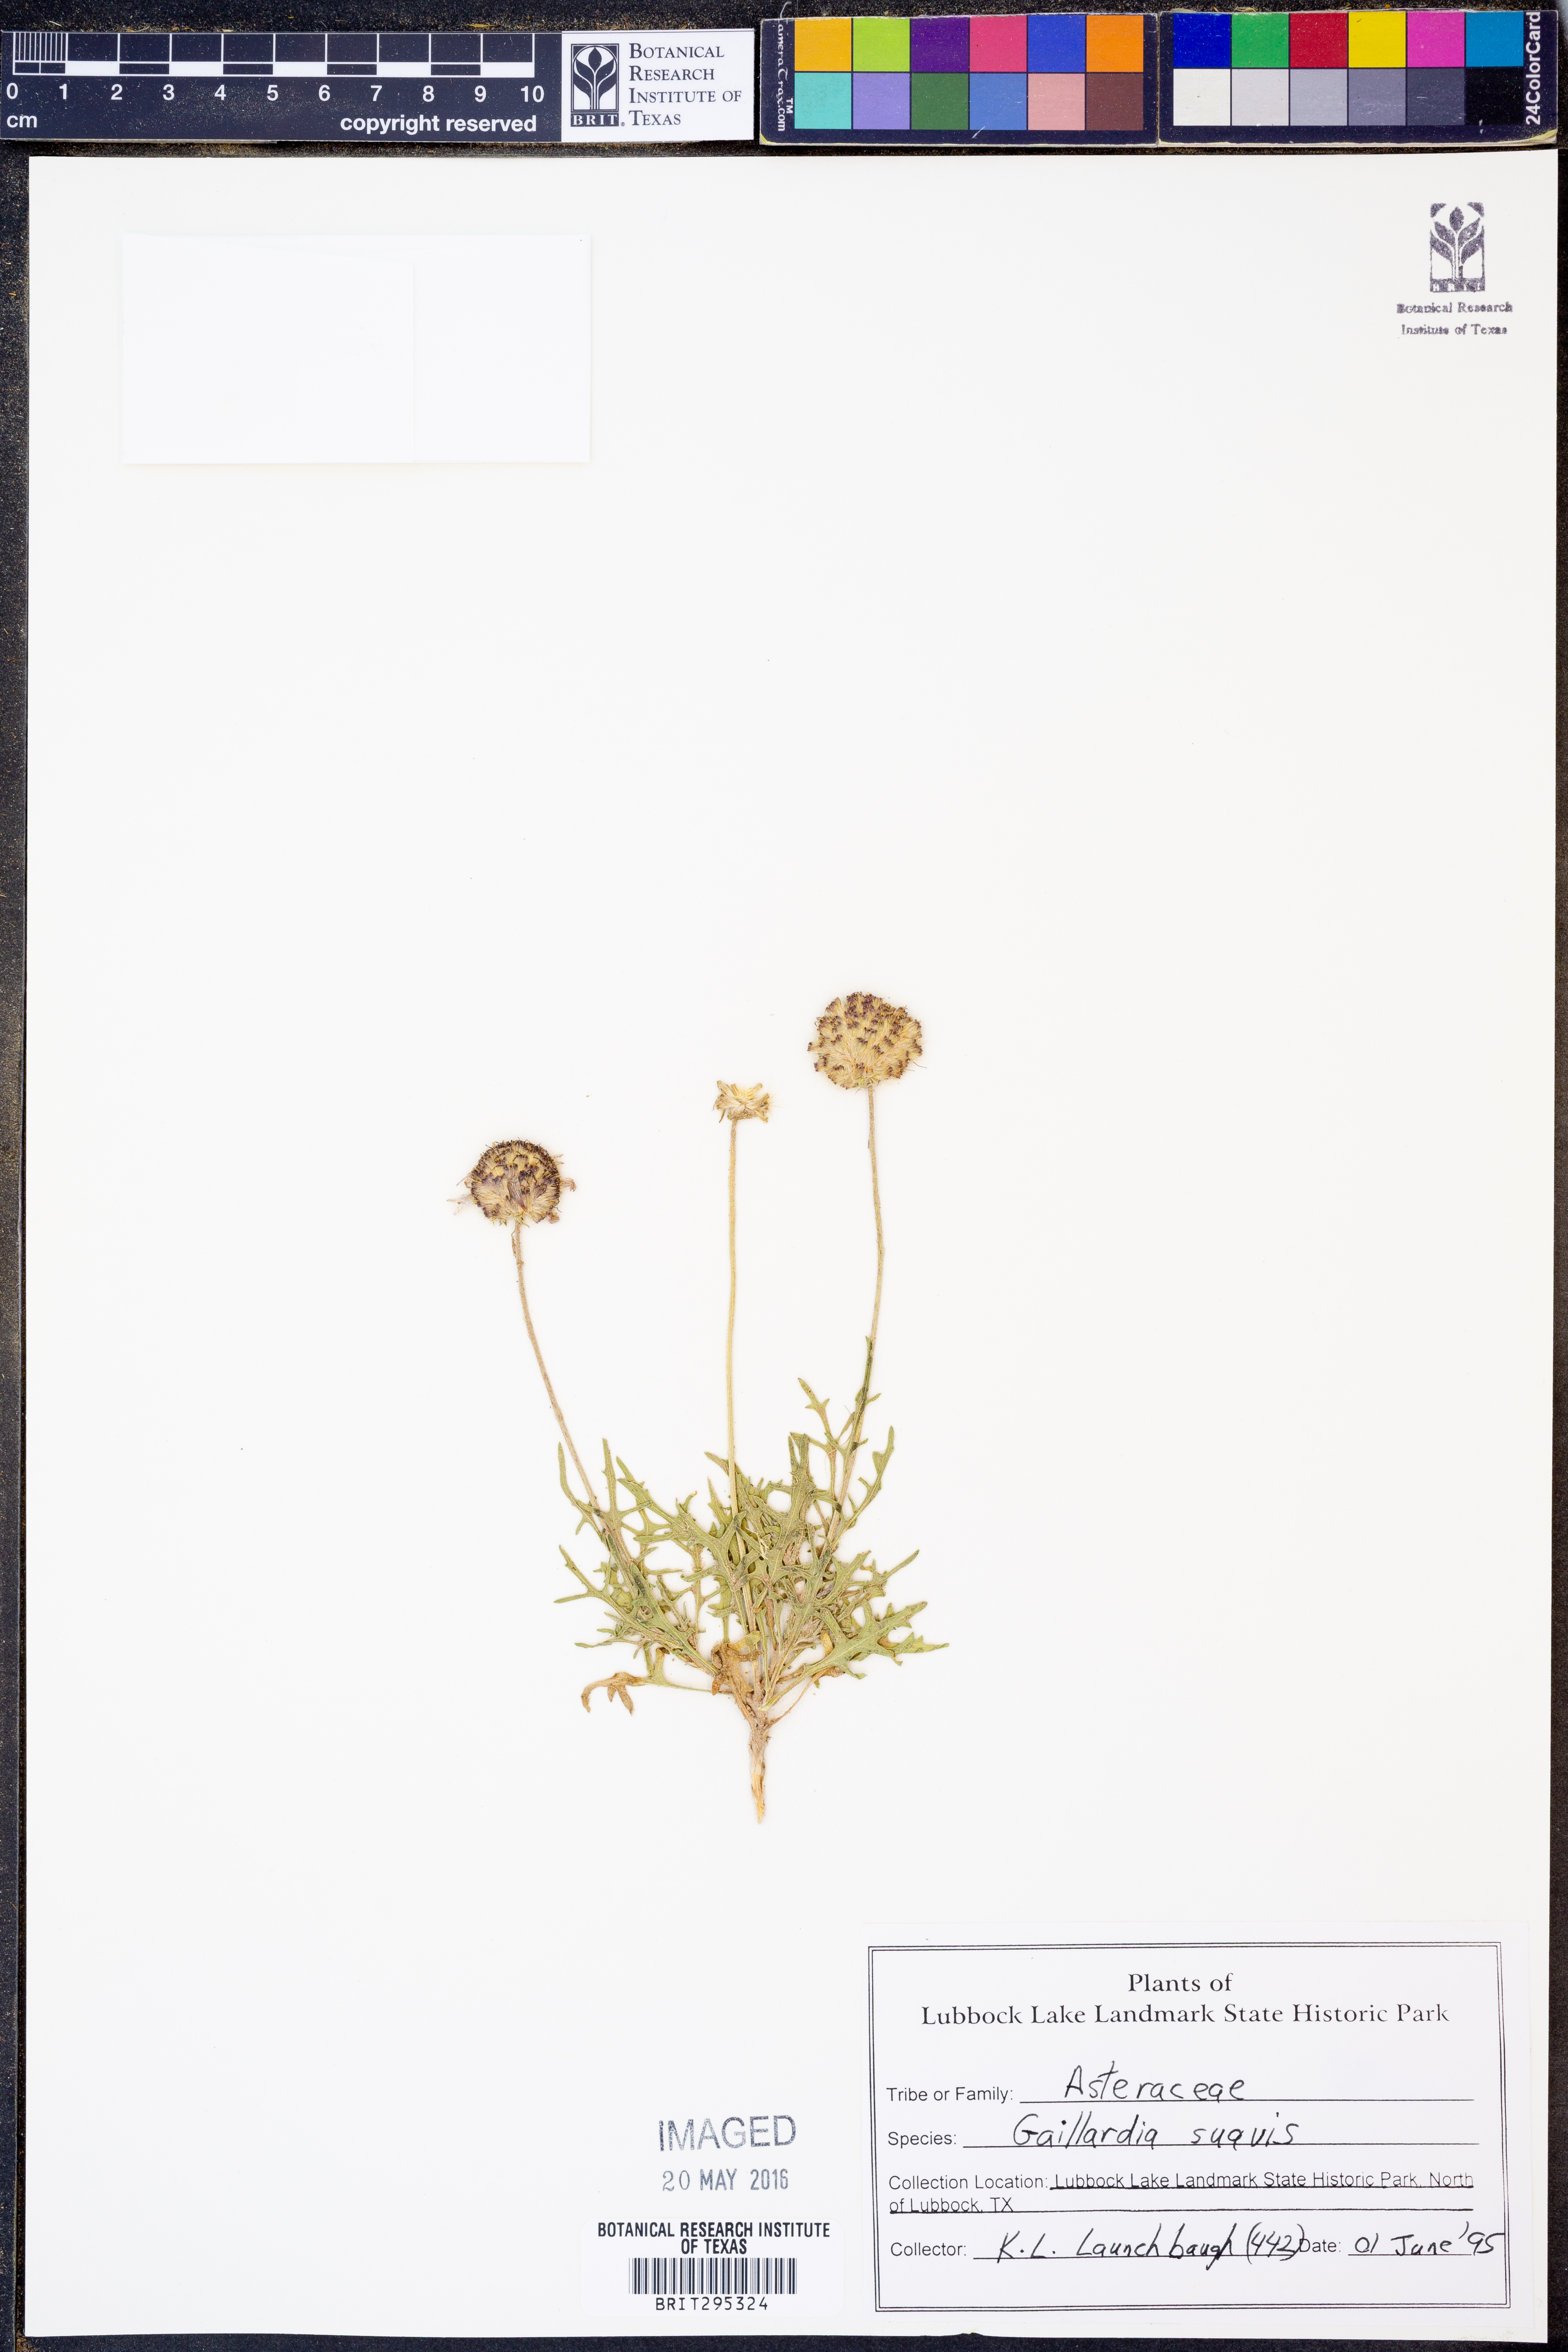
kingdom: Plantae
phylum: Tracheophyta
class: Magnoliopsida
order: Asterales
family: Asteraceae
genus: Gaillardia
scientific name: Gaillardia suavis
